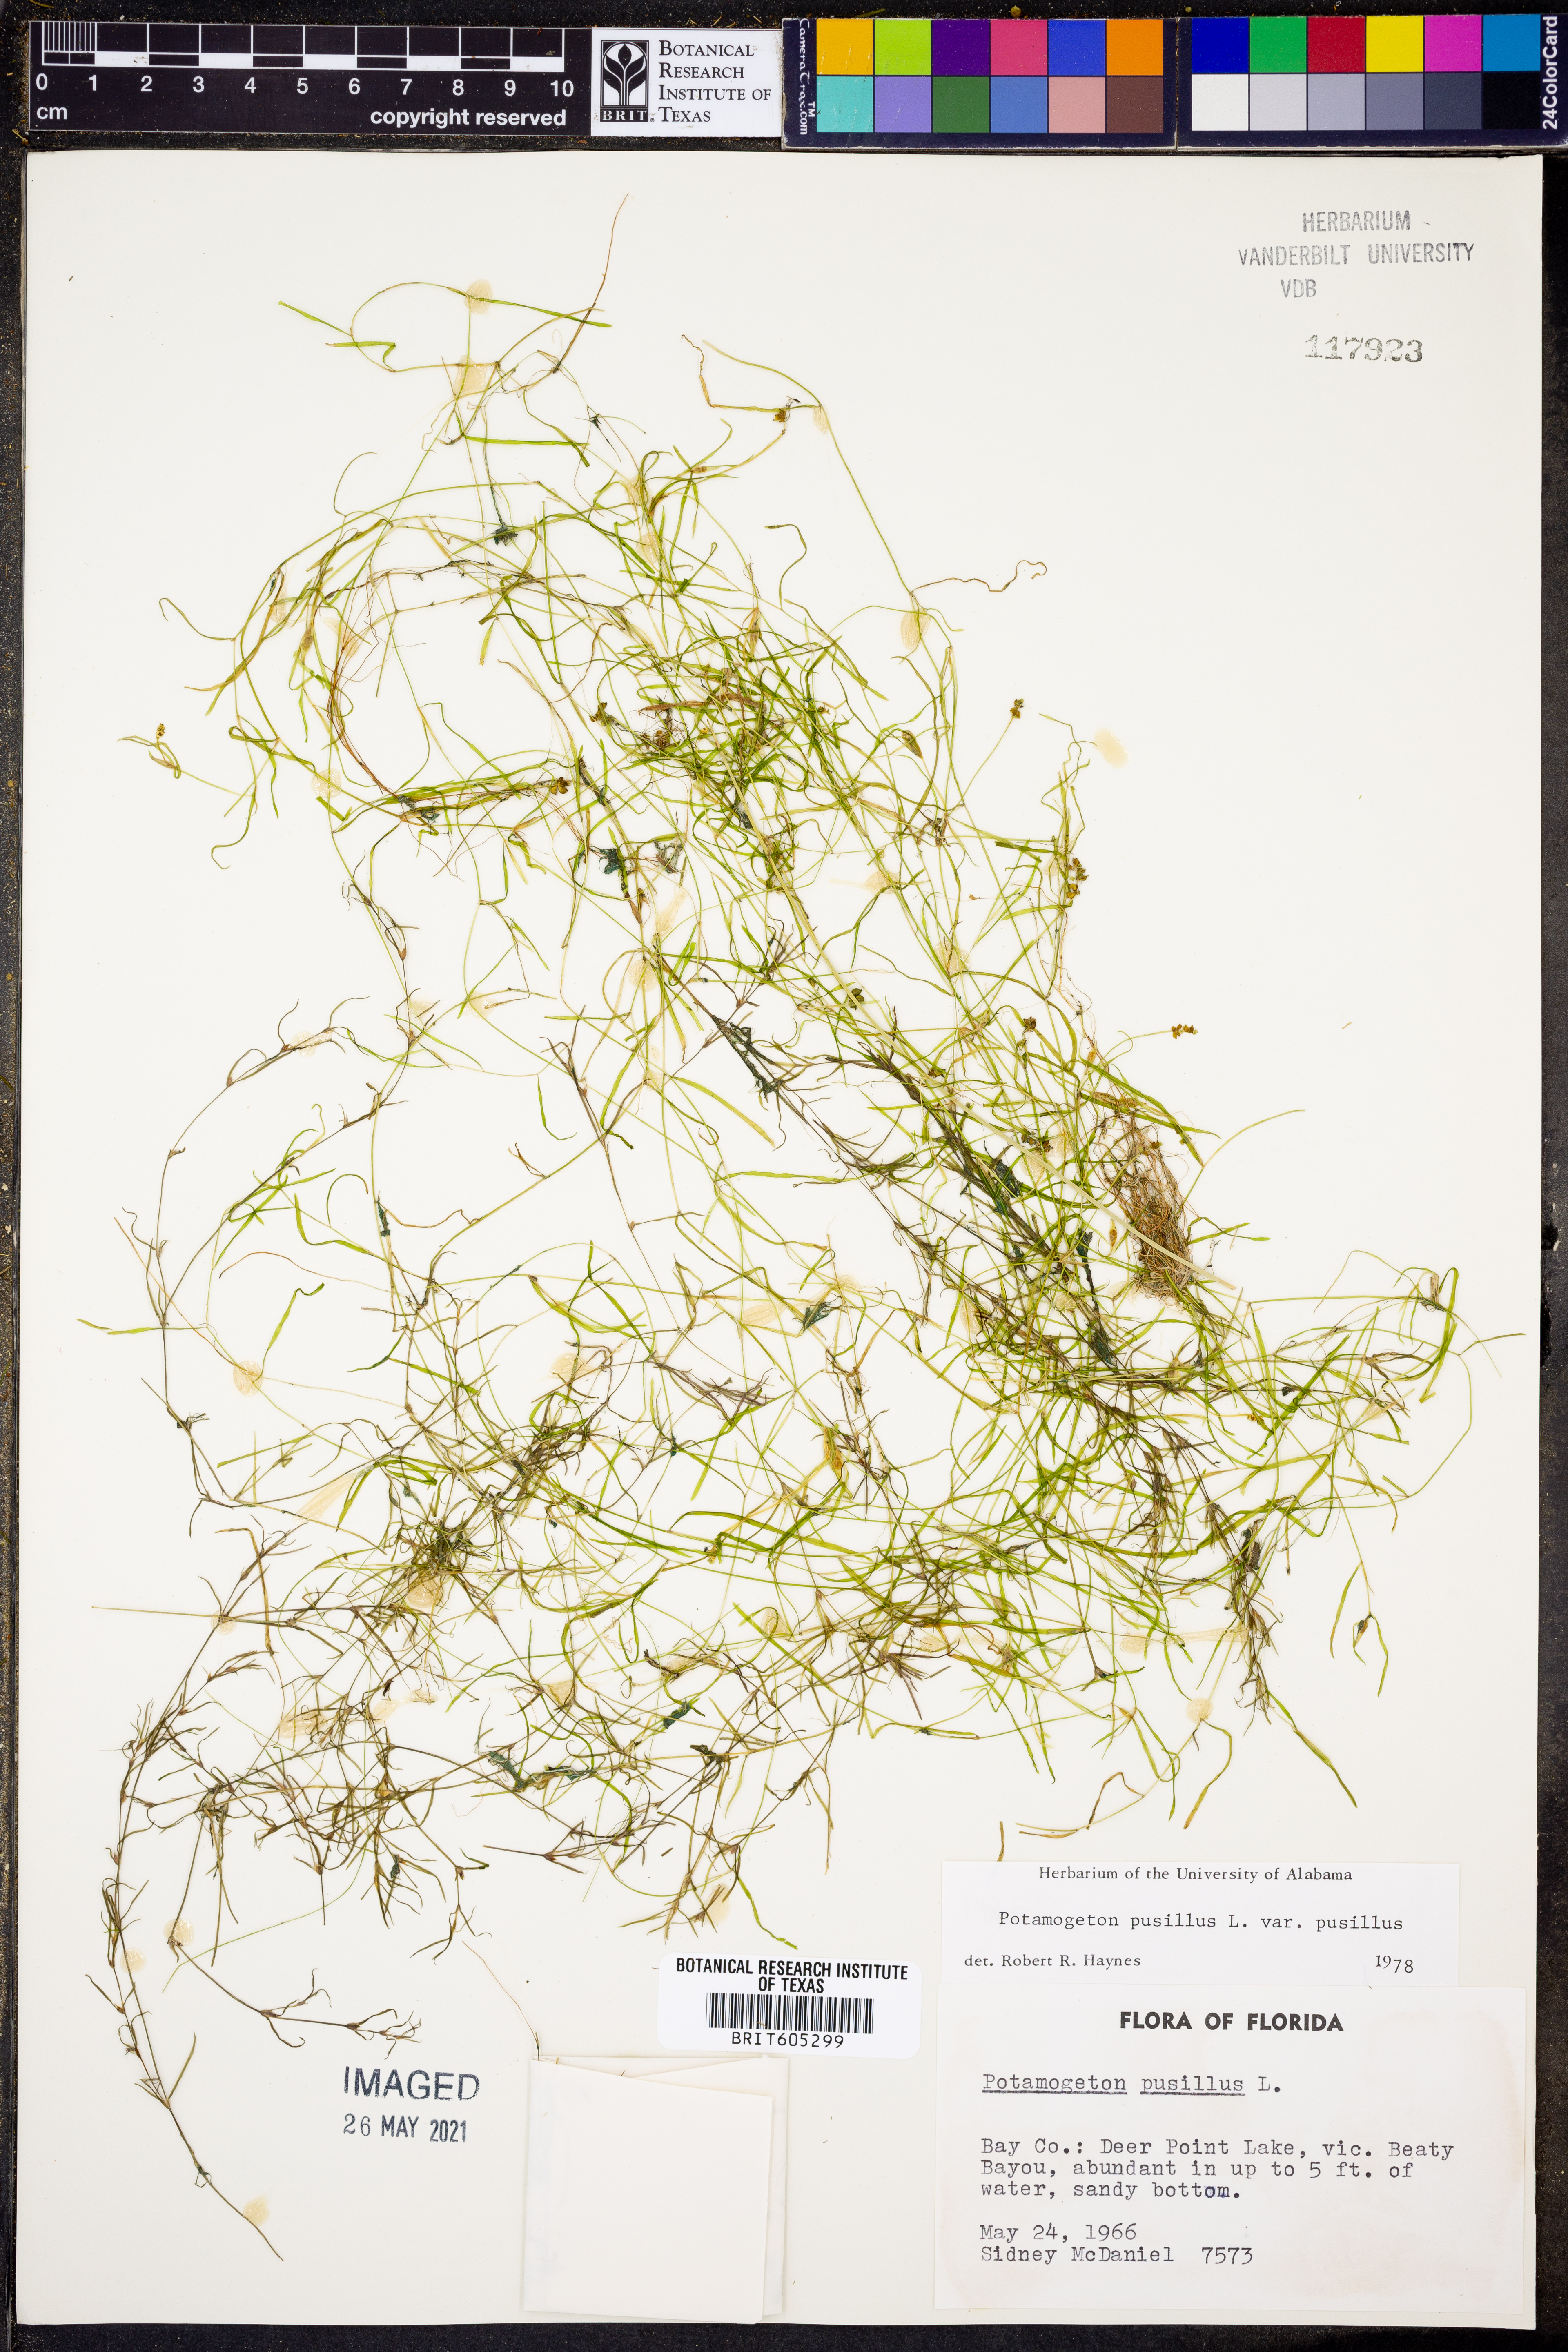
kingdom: Plantae
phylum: Tracheophyta
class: Liliopsida
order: Alismatales
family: Potamogetonaceae
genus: Potamogeton
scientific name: Potamogeton pusillus
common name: Lesser pondweed
